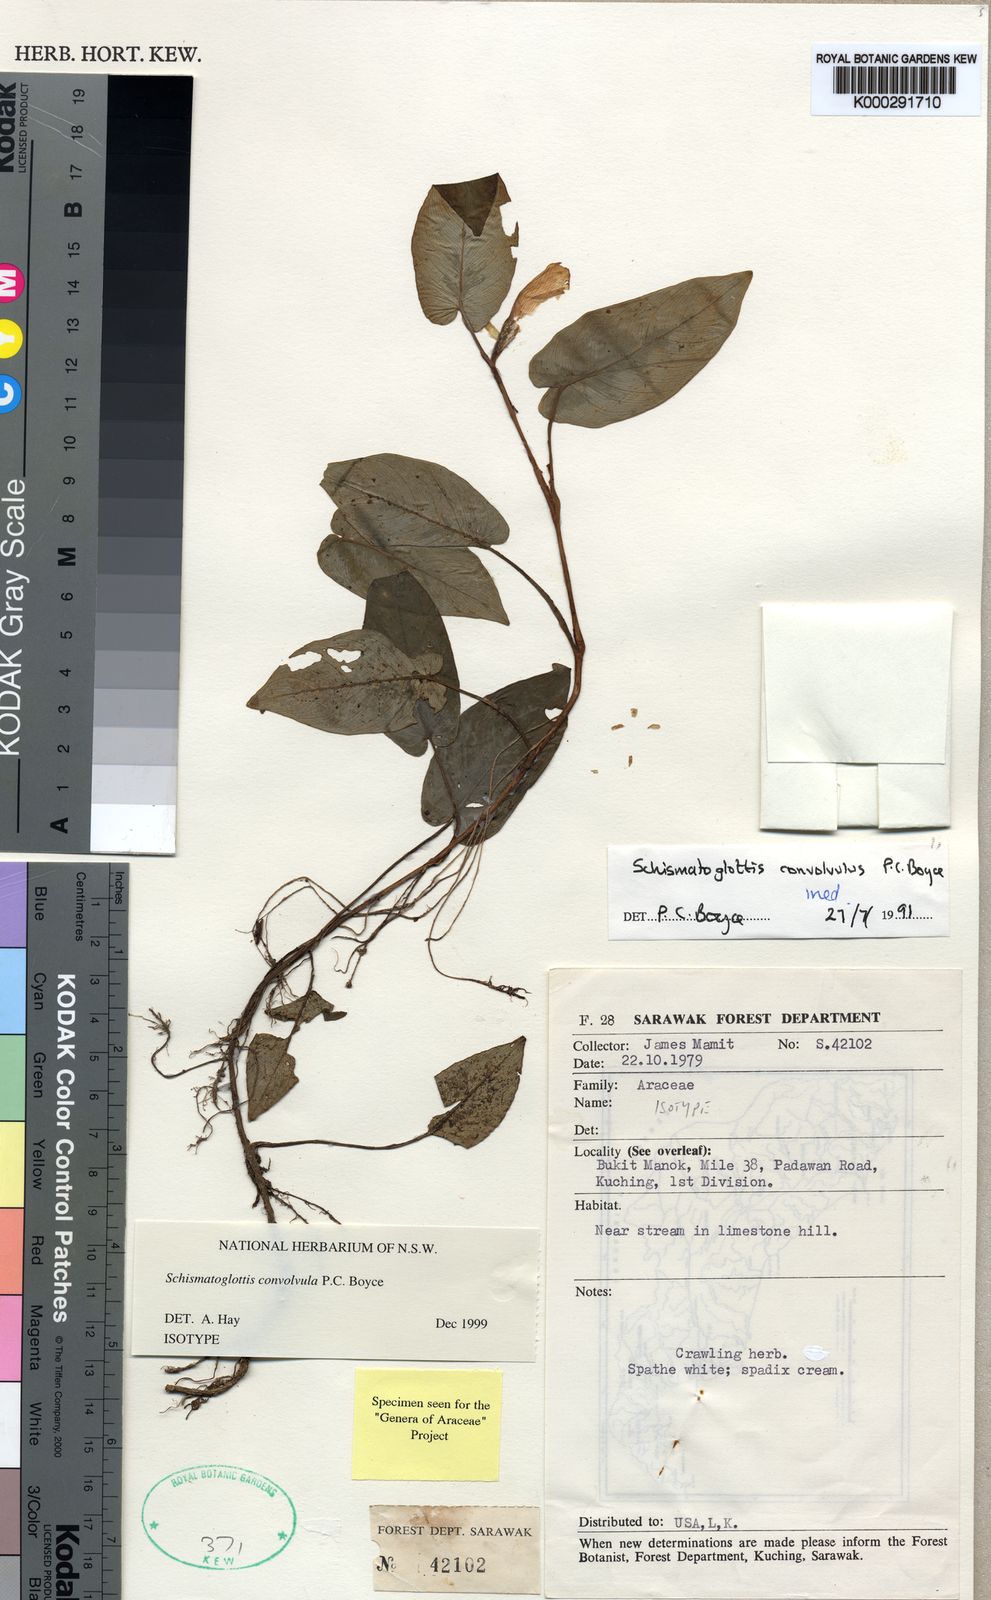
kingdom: Plantae
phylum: Tracheophyta
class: Liliopsida
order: Alismatales
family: Araceae
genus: Schismatoglottis
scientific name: Schismatoglottis convolvula
